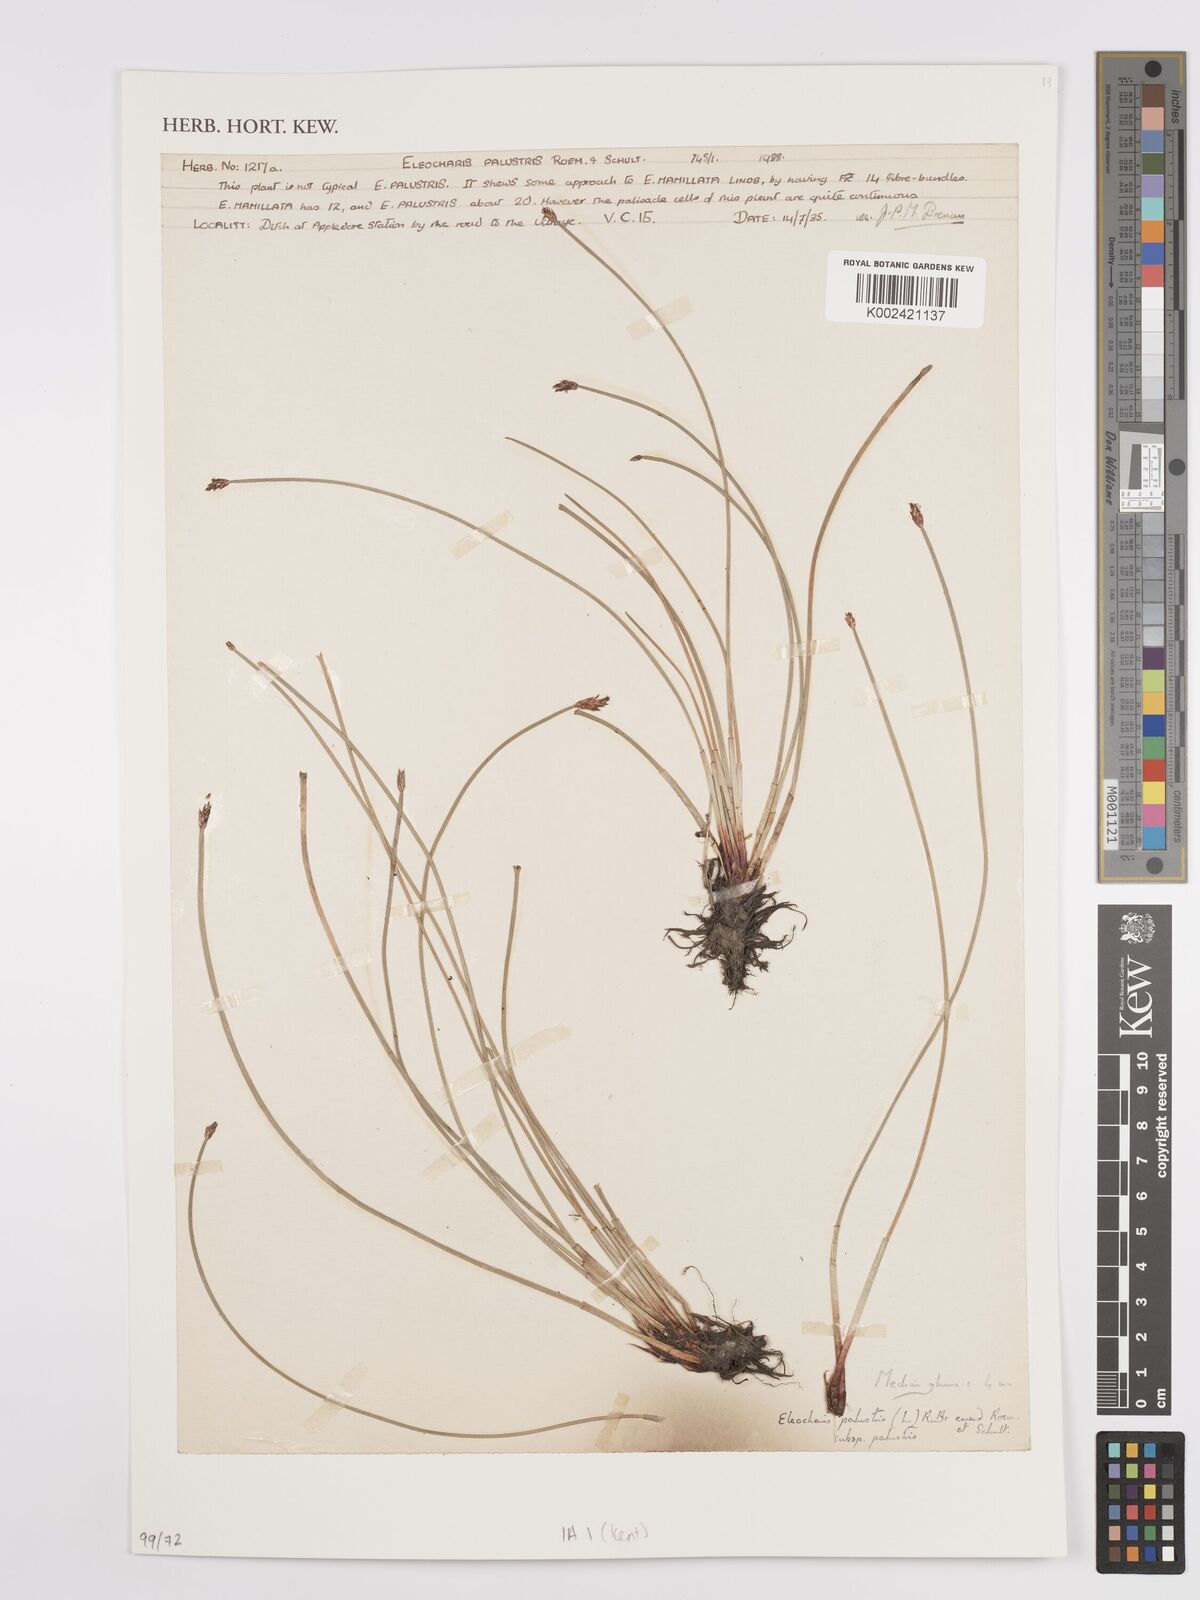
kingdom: Plantae
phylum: Tracheophyta
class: Liliopsida
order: Poales
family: Cyperaceae
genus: Eleocharis
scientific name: Eleocharis palustris
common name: Common spike-rush
